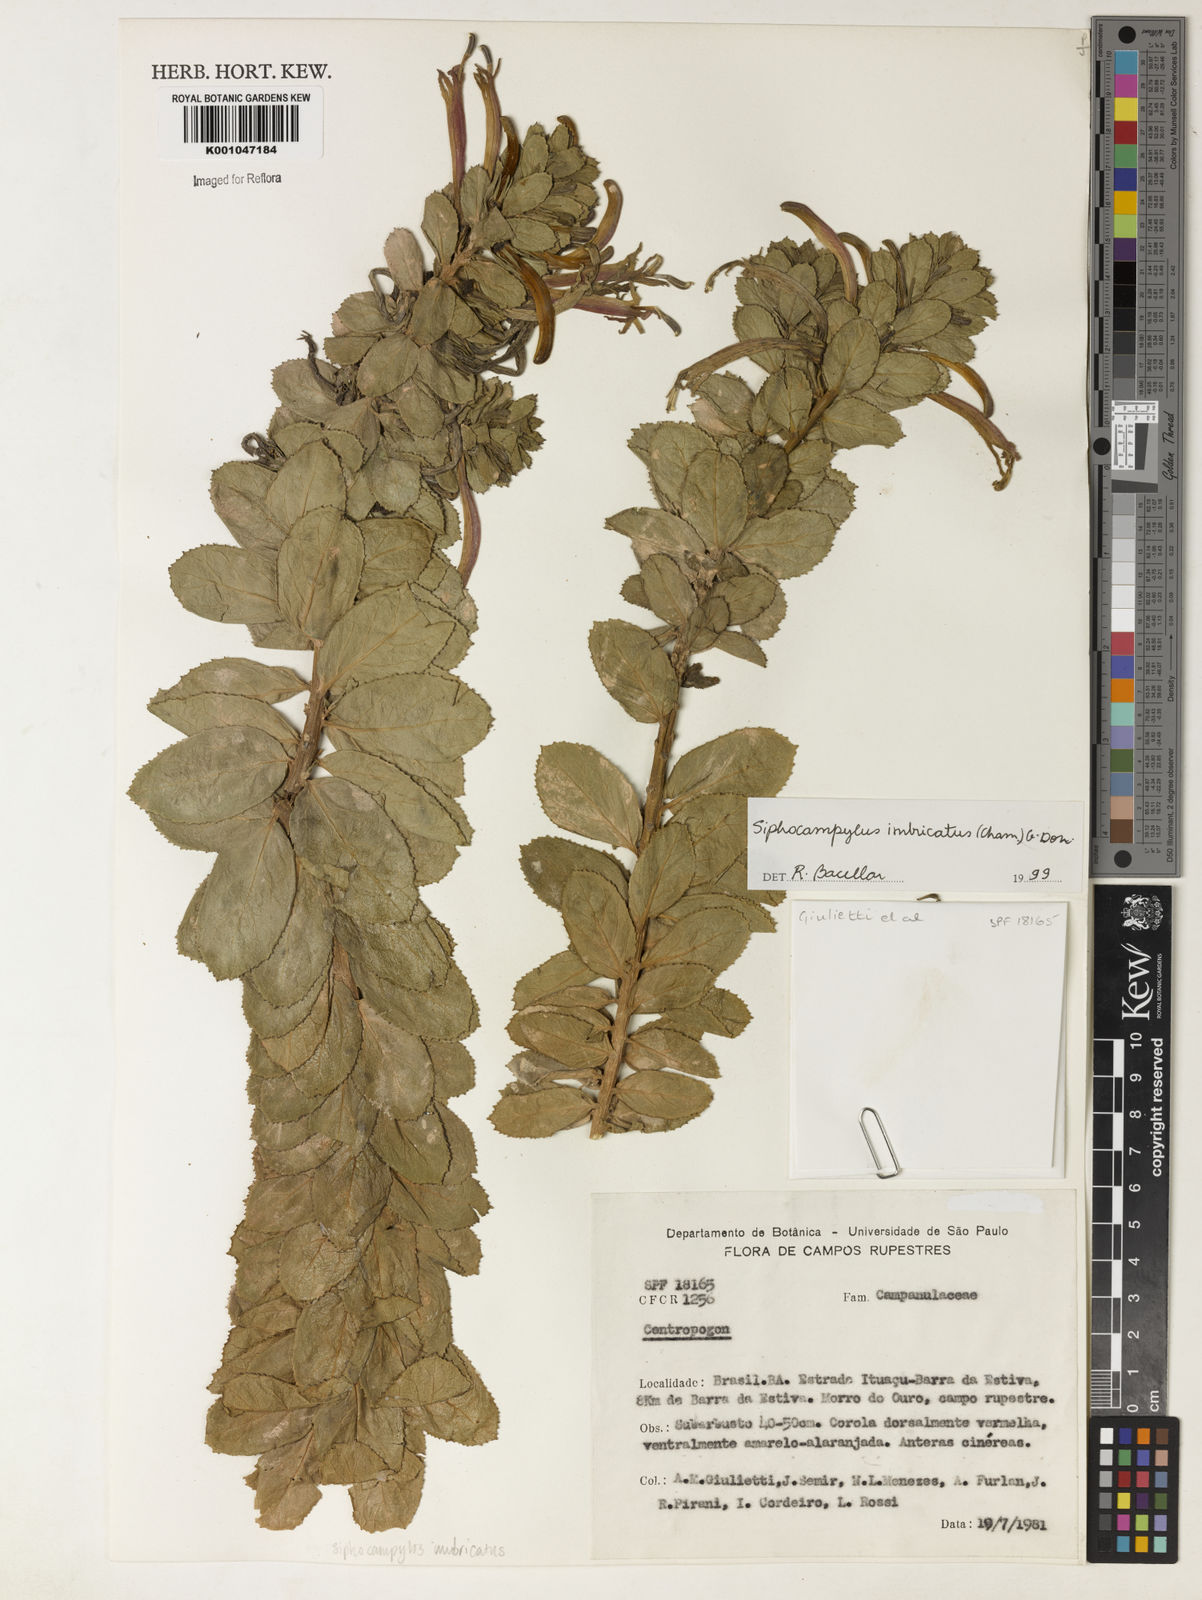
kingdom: Plantae
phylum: Tracheophyta
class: Magnoliopsida
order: Asterales
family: Campanulaceae
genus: Siphocampylus
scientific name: Siphocampylus imbricatus
